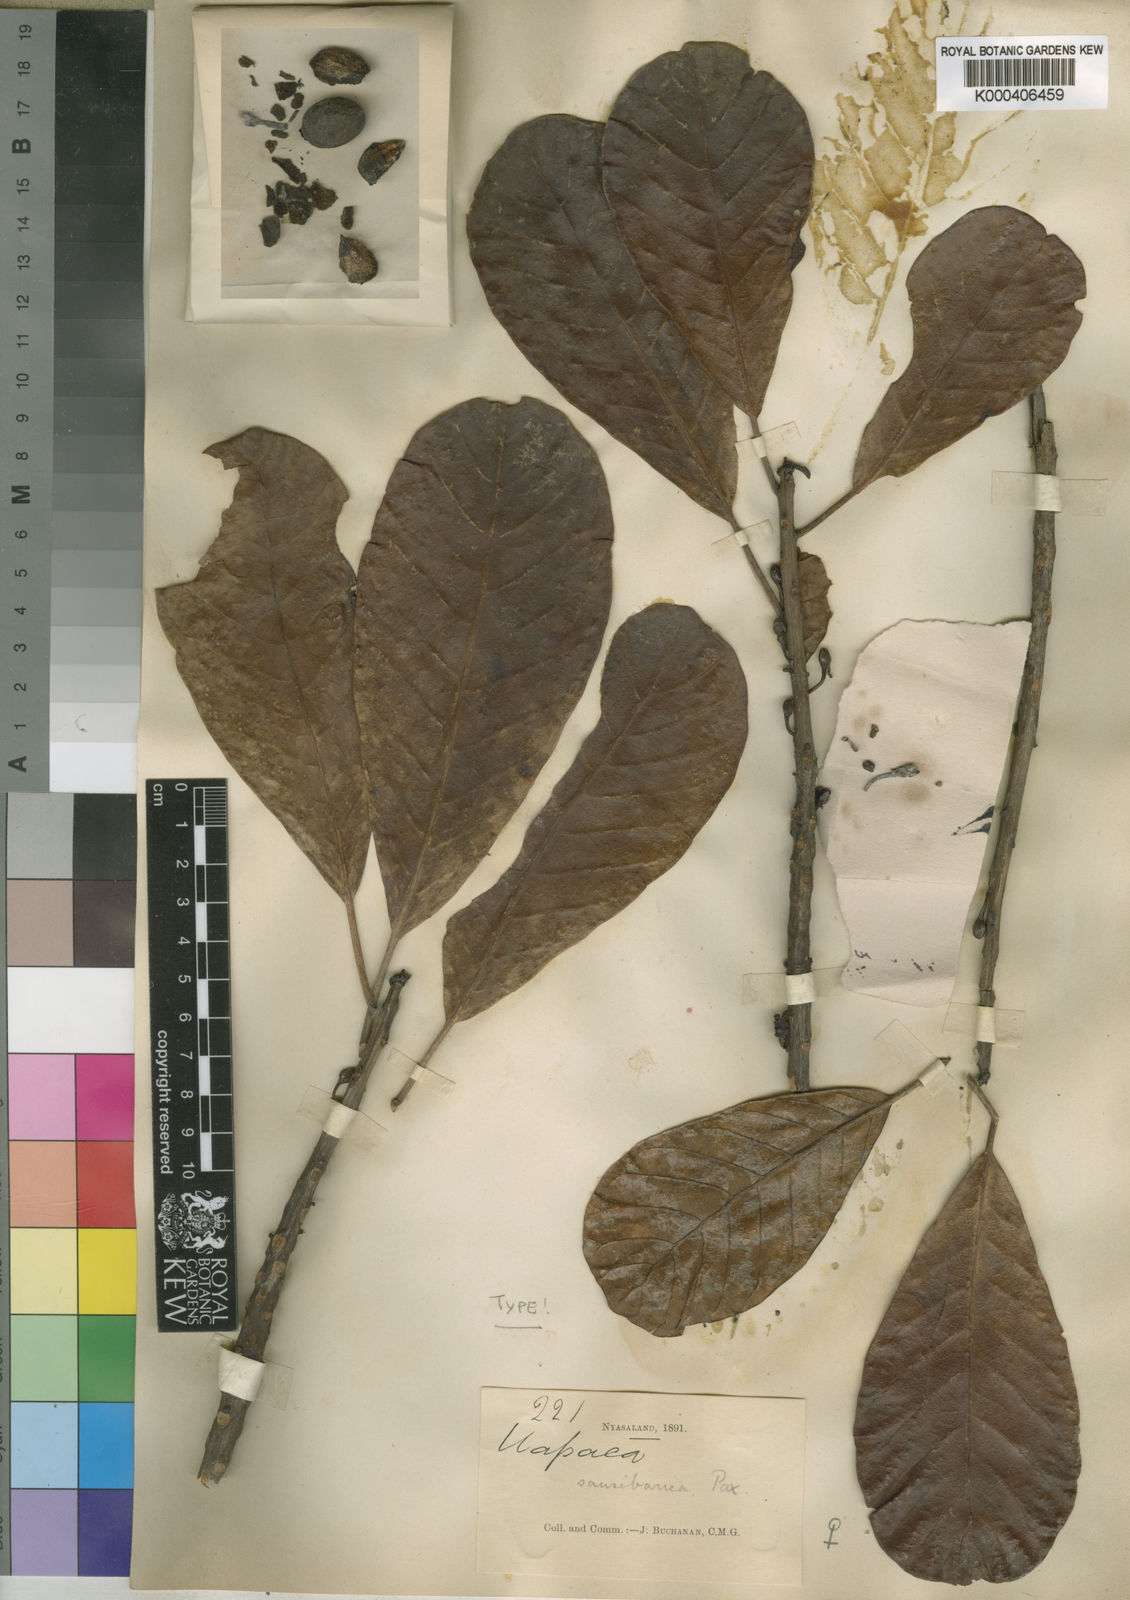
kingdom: Plantae
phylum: Tracheophyta
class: Magnoliopsida
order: Malpighiales
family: Phyllanthaceae
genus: Uapaca
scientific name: Uapaca sansibarica
